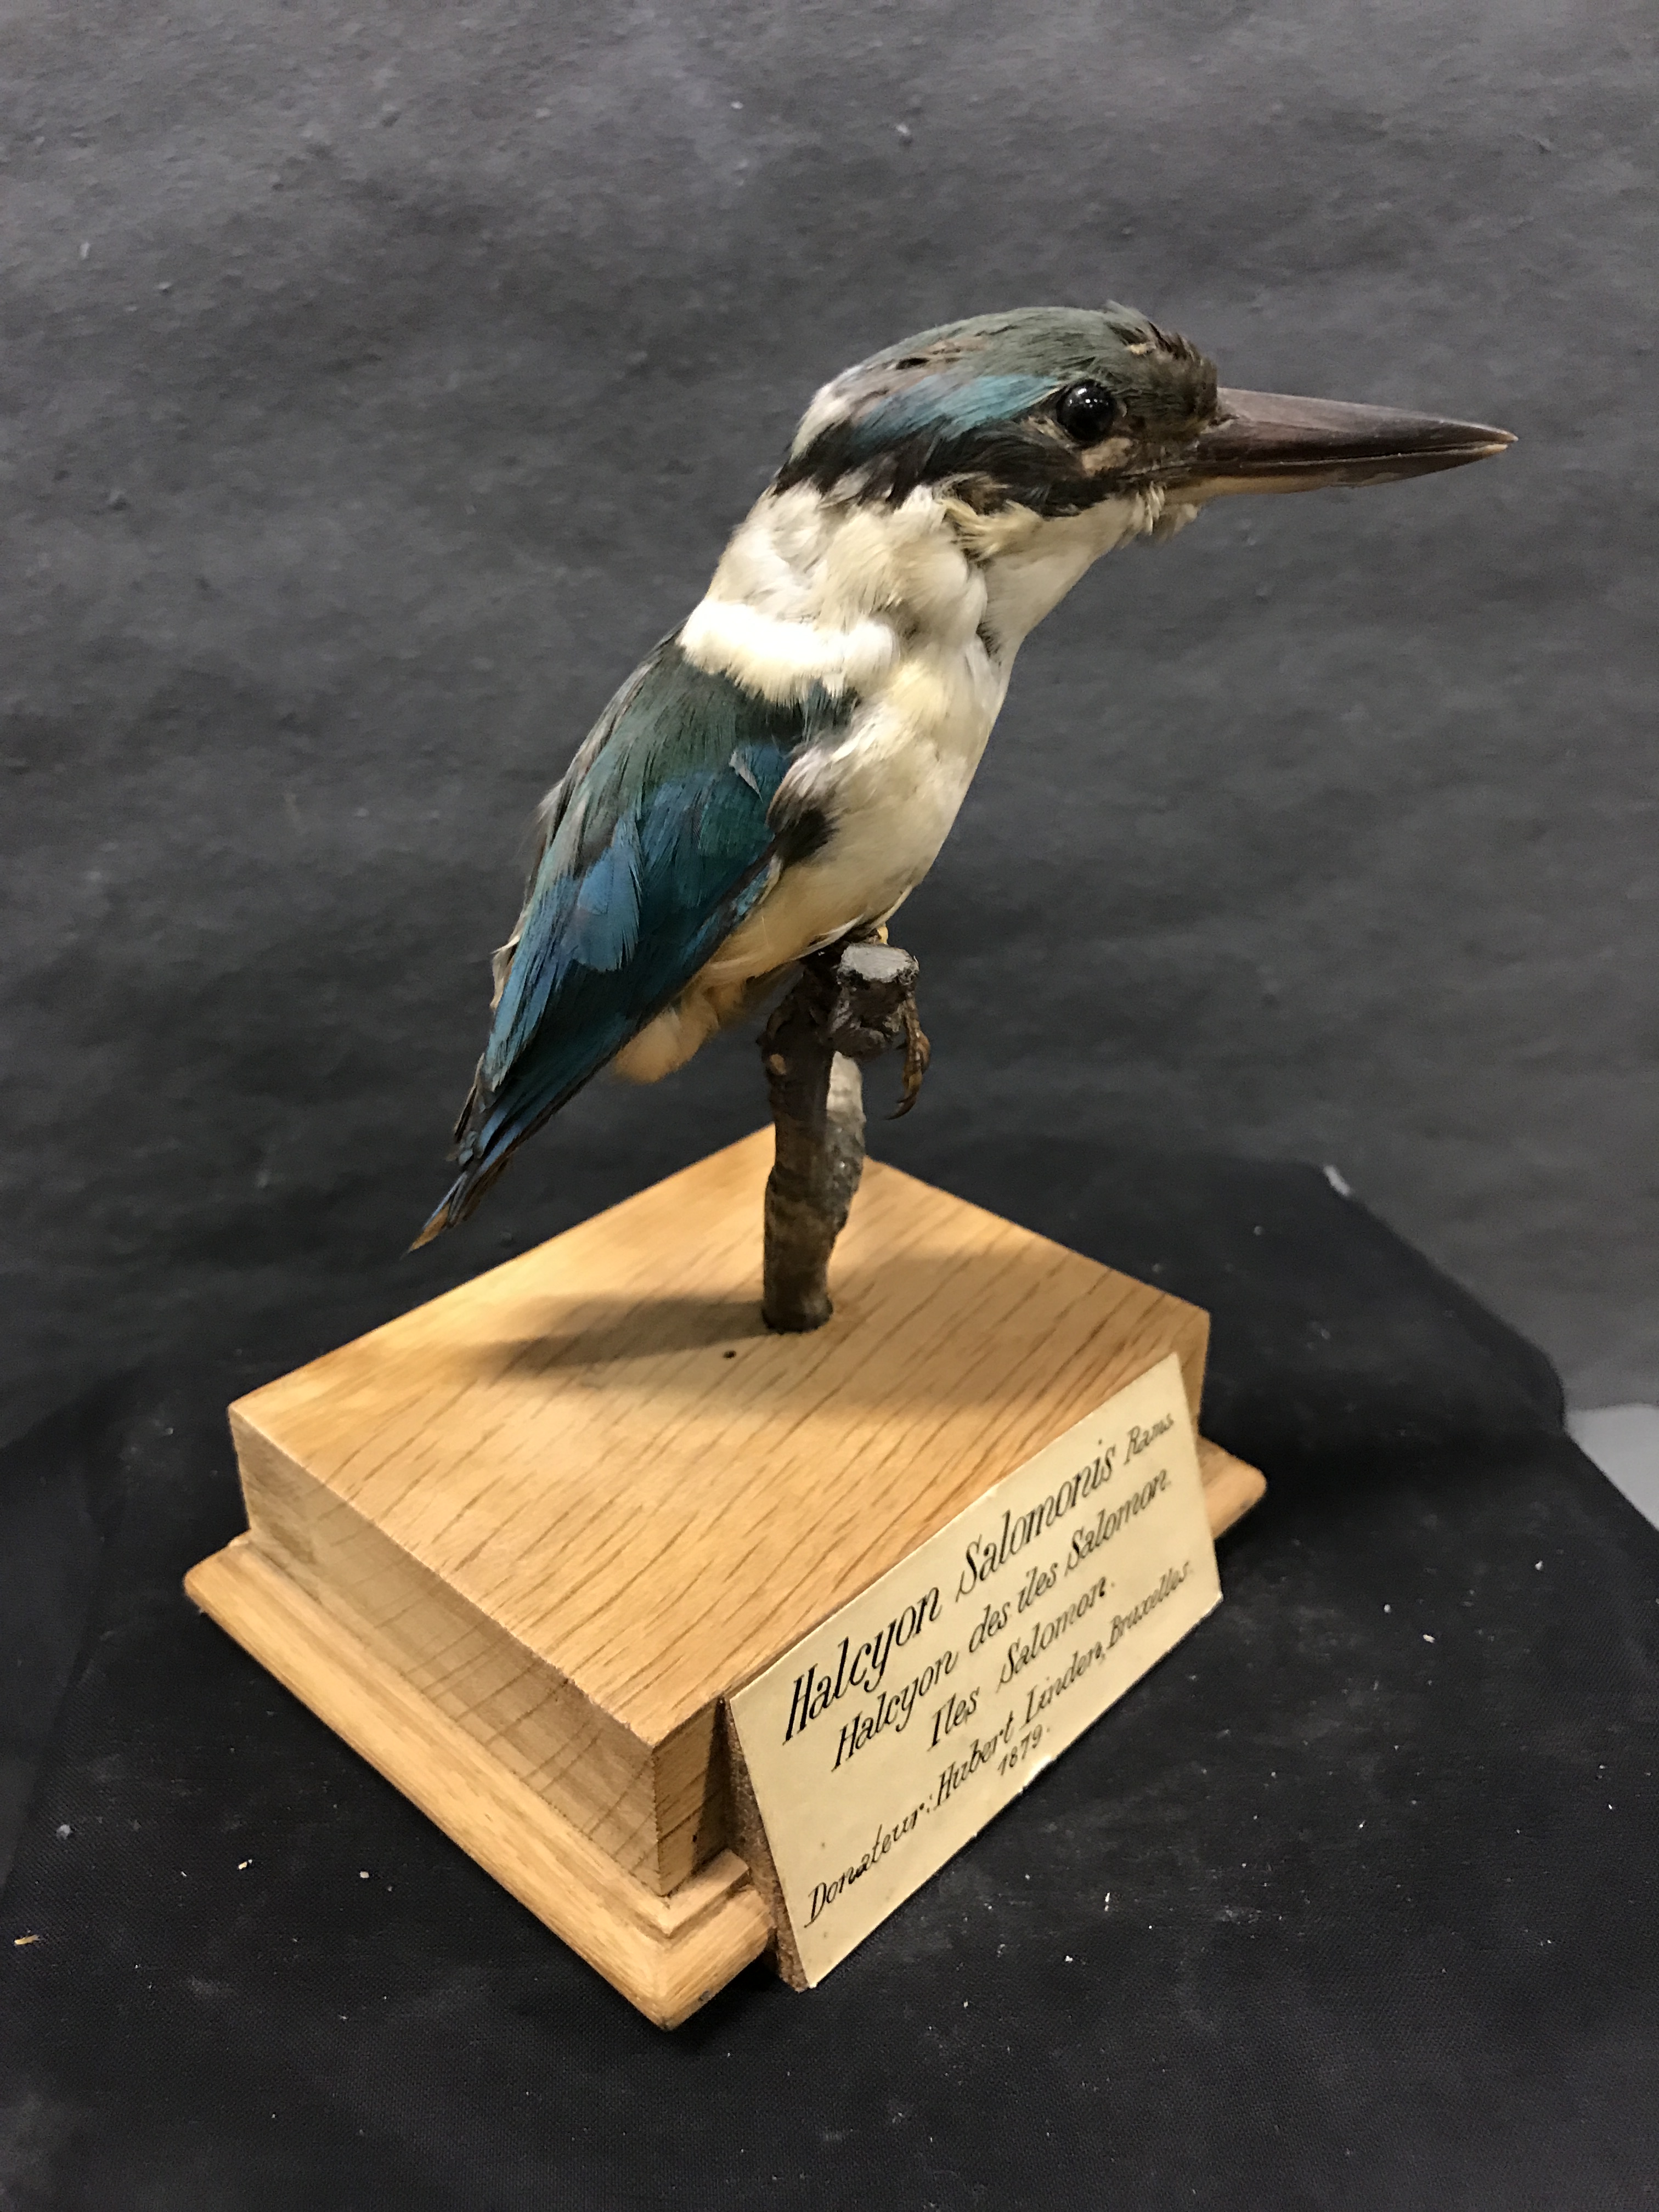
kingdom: Animalia
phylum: Chordata
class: Aves
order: Coraciiformes
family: Alcedinidae
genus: Todiramphus
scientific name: Todiramphus chloris
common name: Collared kingfisher
